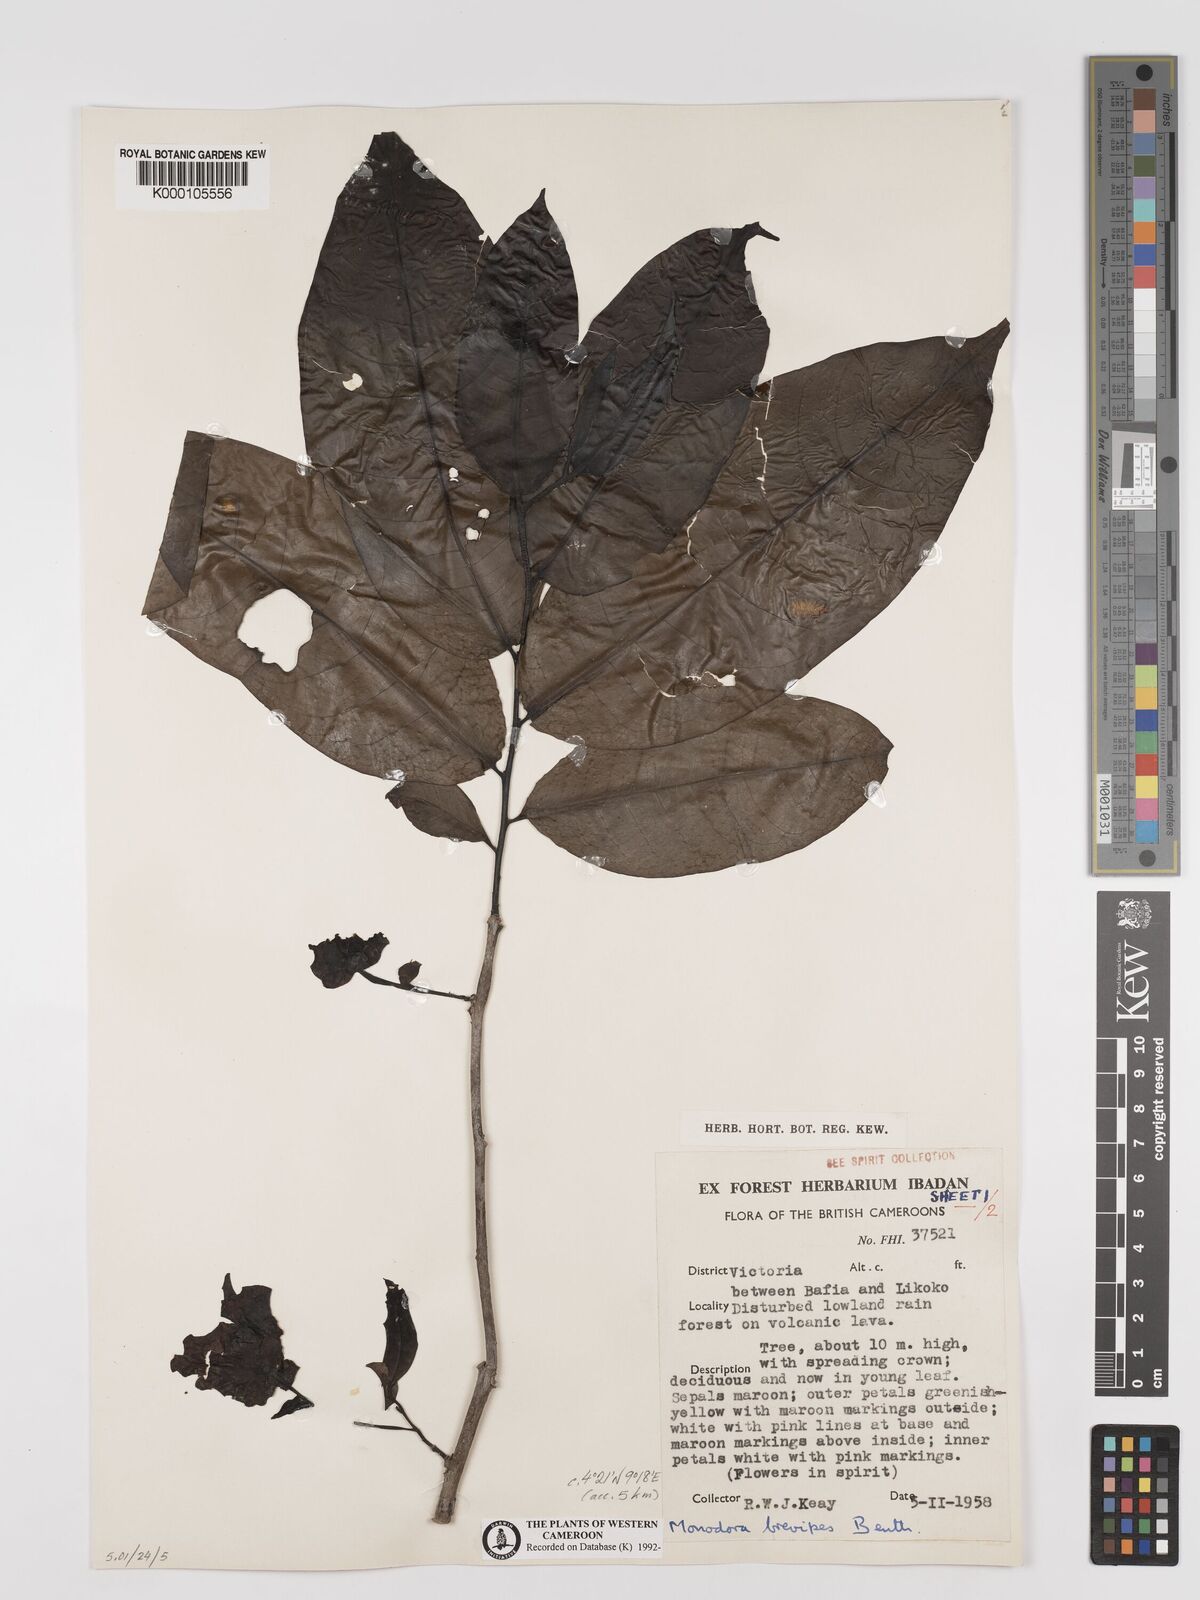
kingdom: Plantae
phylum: Tracheophyta
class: Magnoliopsida
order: Magnoliales
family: Annonaceae
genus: Monodora
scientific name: Monodora undulata
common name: Yellow-flower-nutmeg
